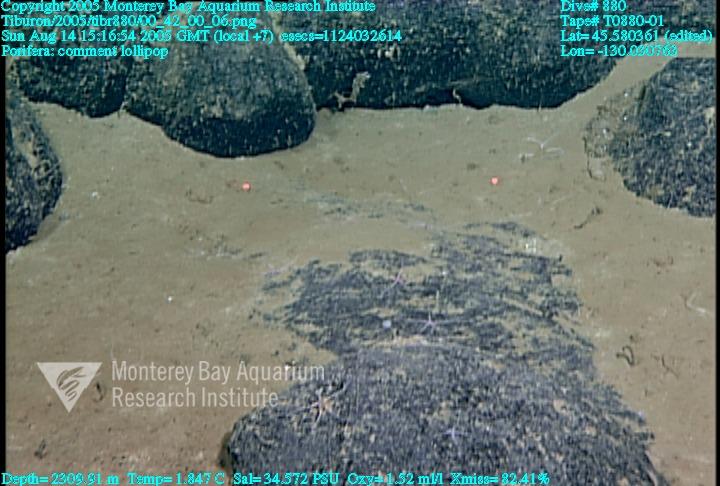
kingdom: Animalia
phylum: Porifera
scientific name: Porifera
